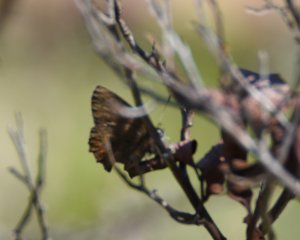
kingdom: Animalia
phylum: Arthropoda
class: Insecta
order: Lepidoptera
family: Lycaenidae
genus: Incisalia
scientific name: Incisalia irioides
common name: Brown Elfin
